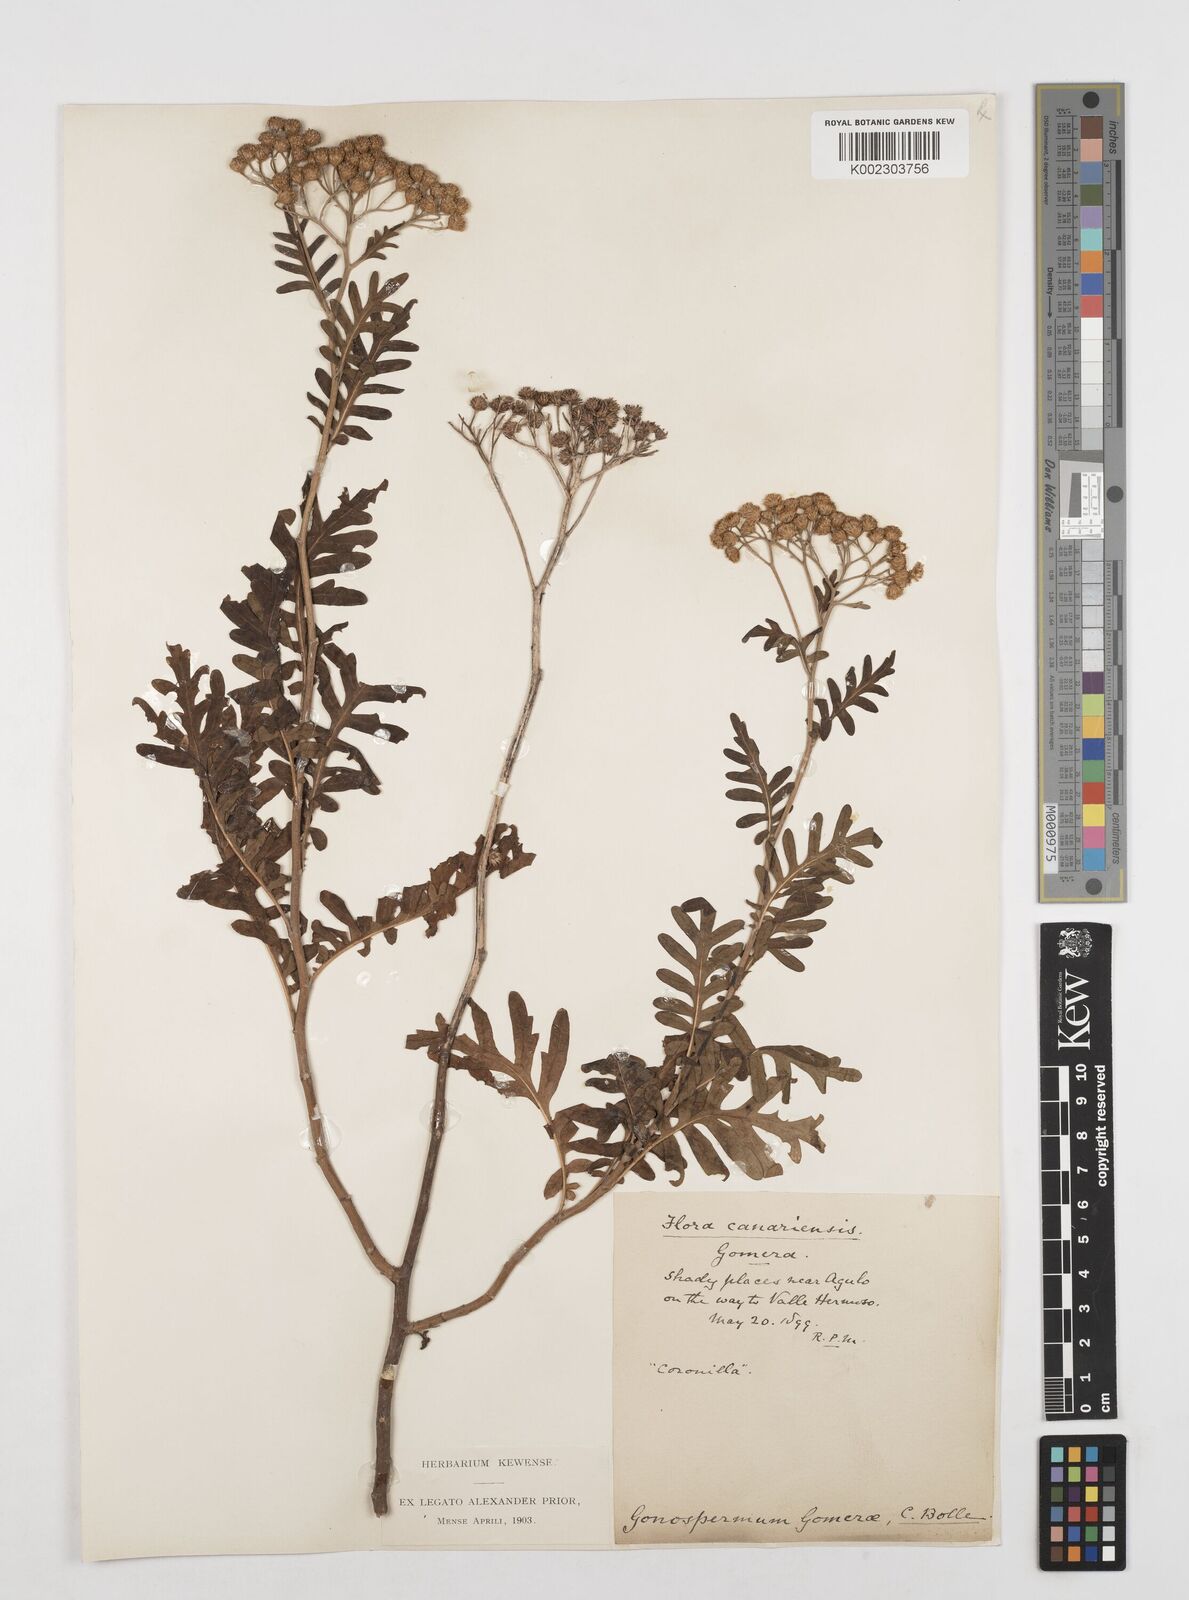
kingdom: Plantae
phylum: Tracheophyta
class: Magnoliopsida
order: Asterales
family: Asteraceae
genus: Gonospermum
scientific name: Gonospermum gomerae
